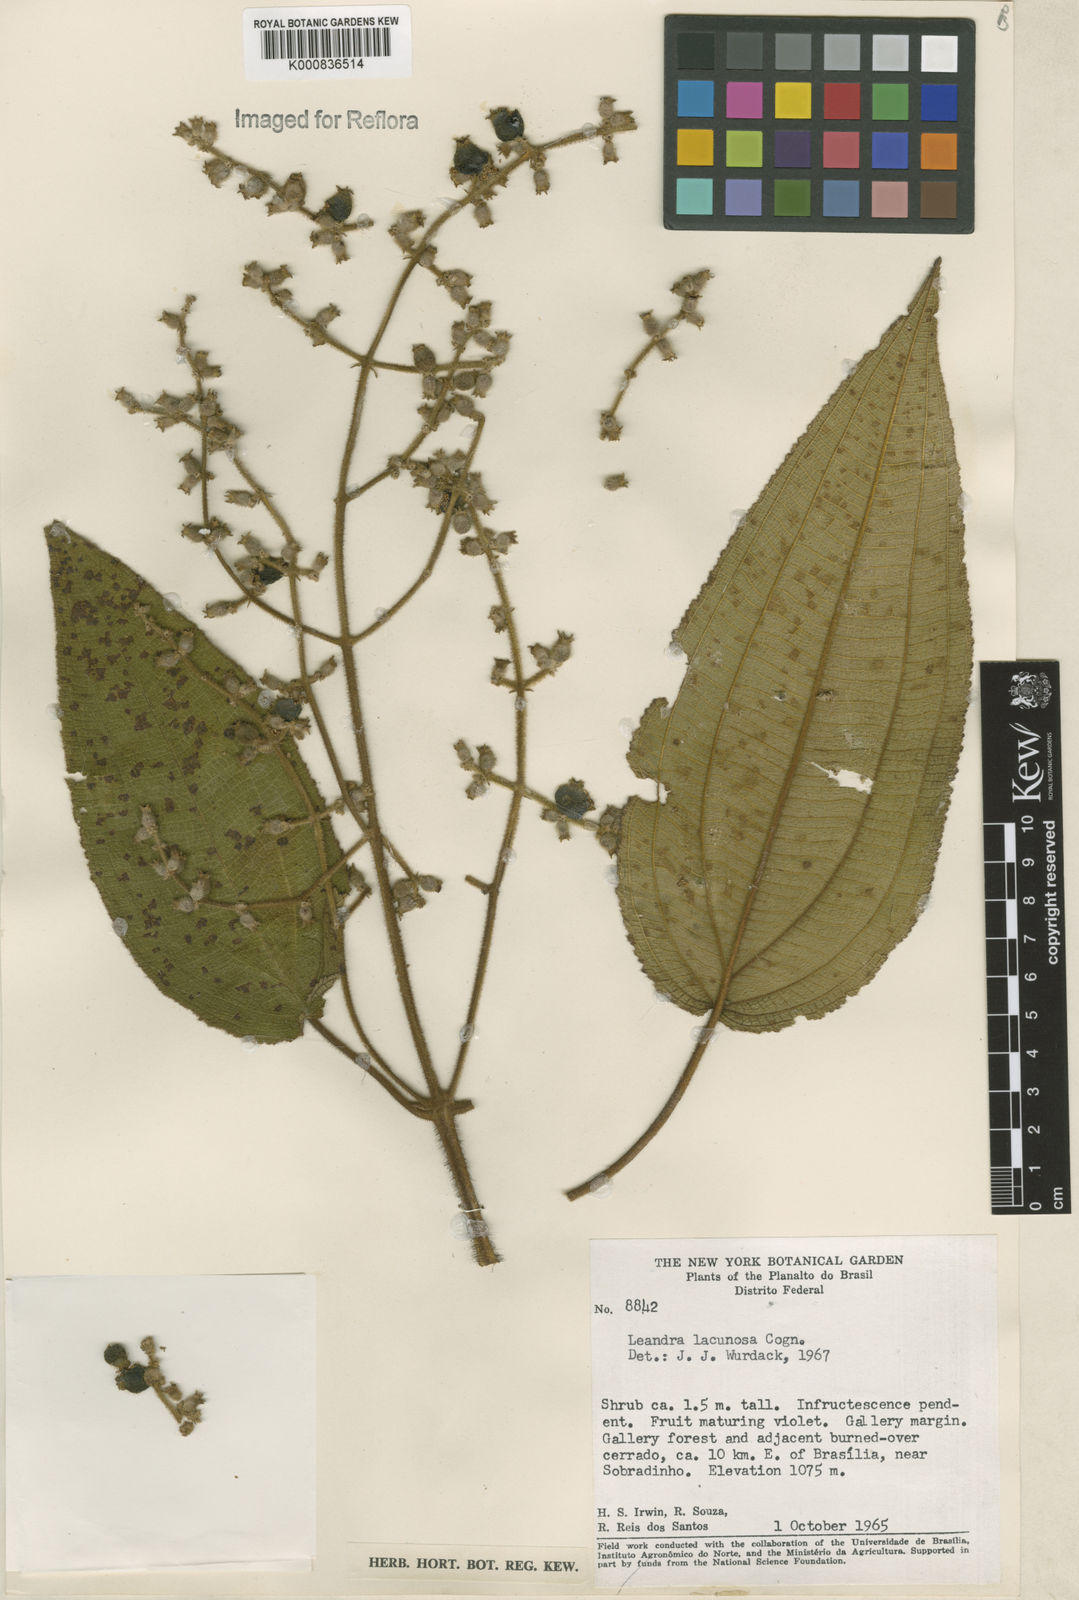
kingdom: Plantae
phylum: Tracheophyta
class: Magnoliopsida
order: Myrtales
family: Melastomataceae
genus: Miconia
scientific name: Miconia lacunosa
